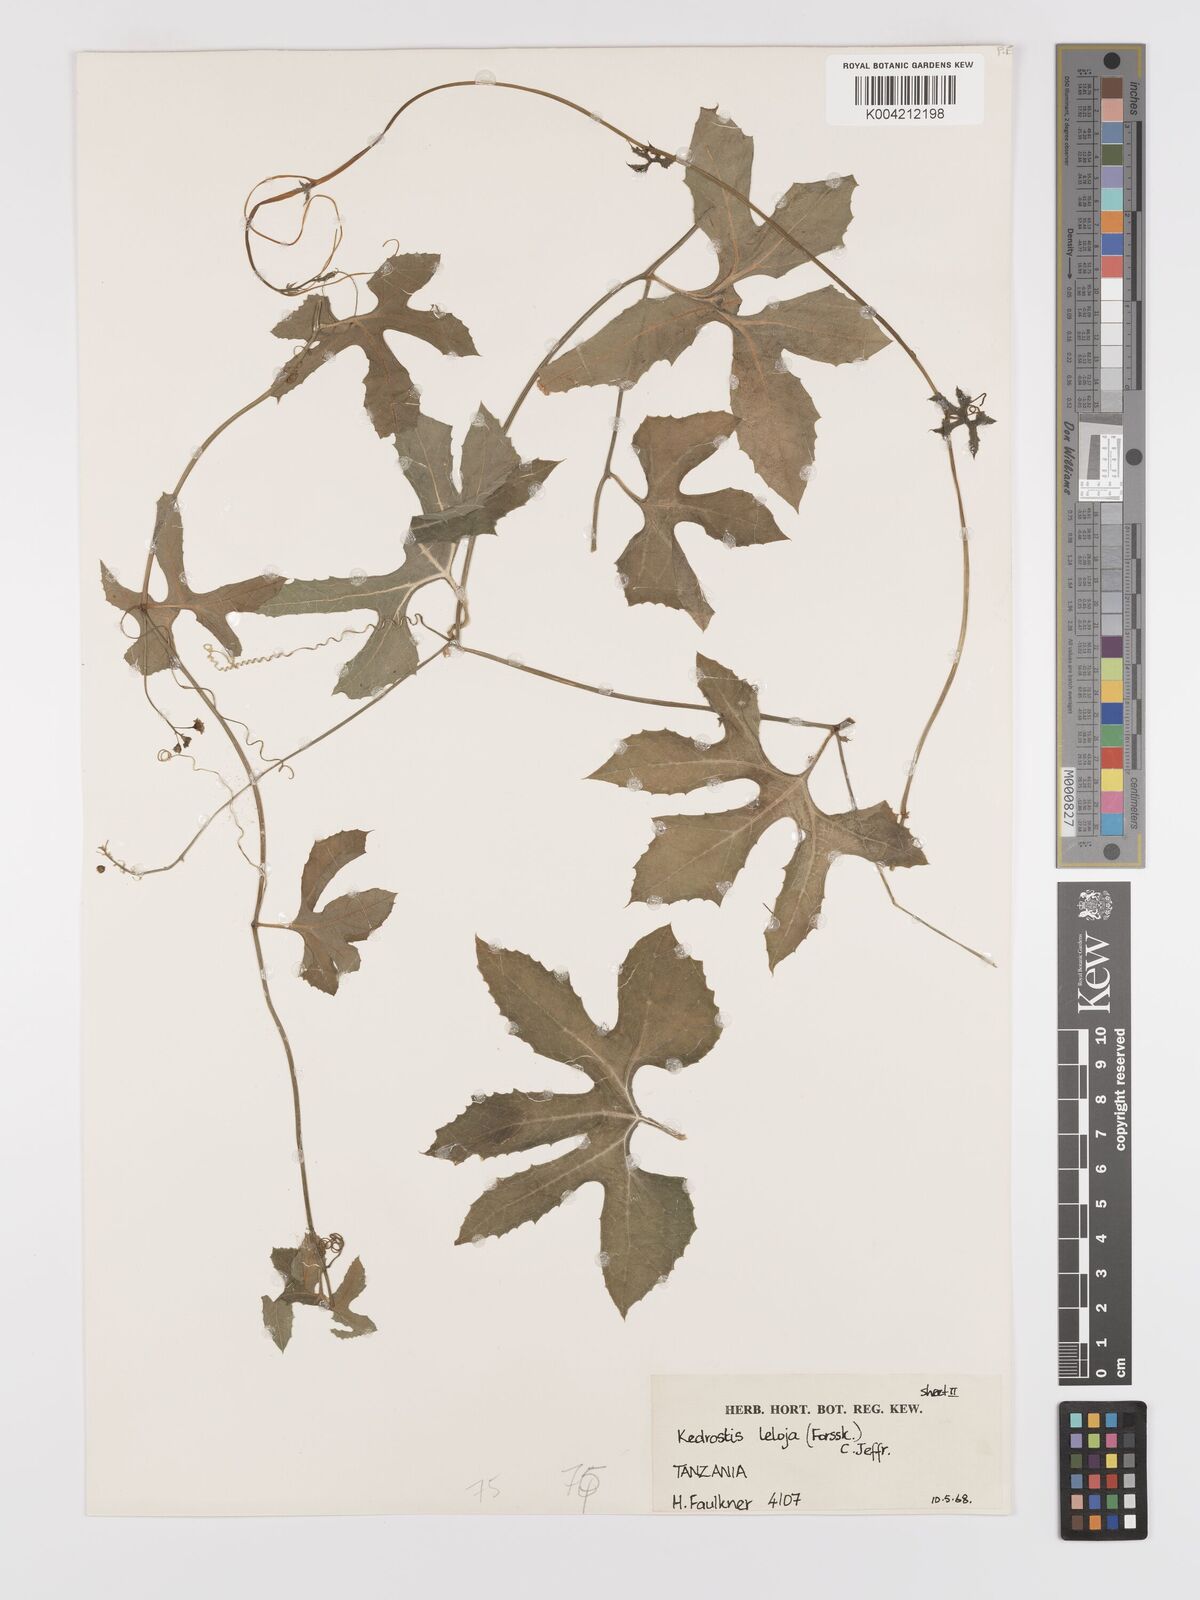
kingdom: Plantae
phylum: Tracheophyta
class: Magnoliopsida
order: Cucurbitales
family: Cucurbitaceae
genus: Kedrostis
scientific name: Kedrostis abdallae
